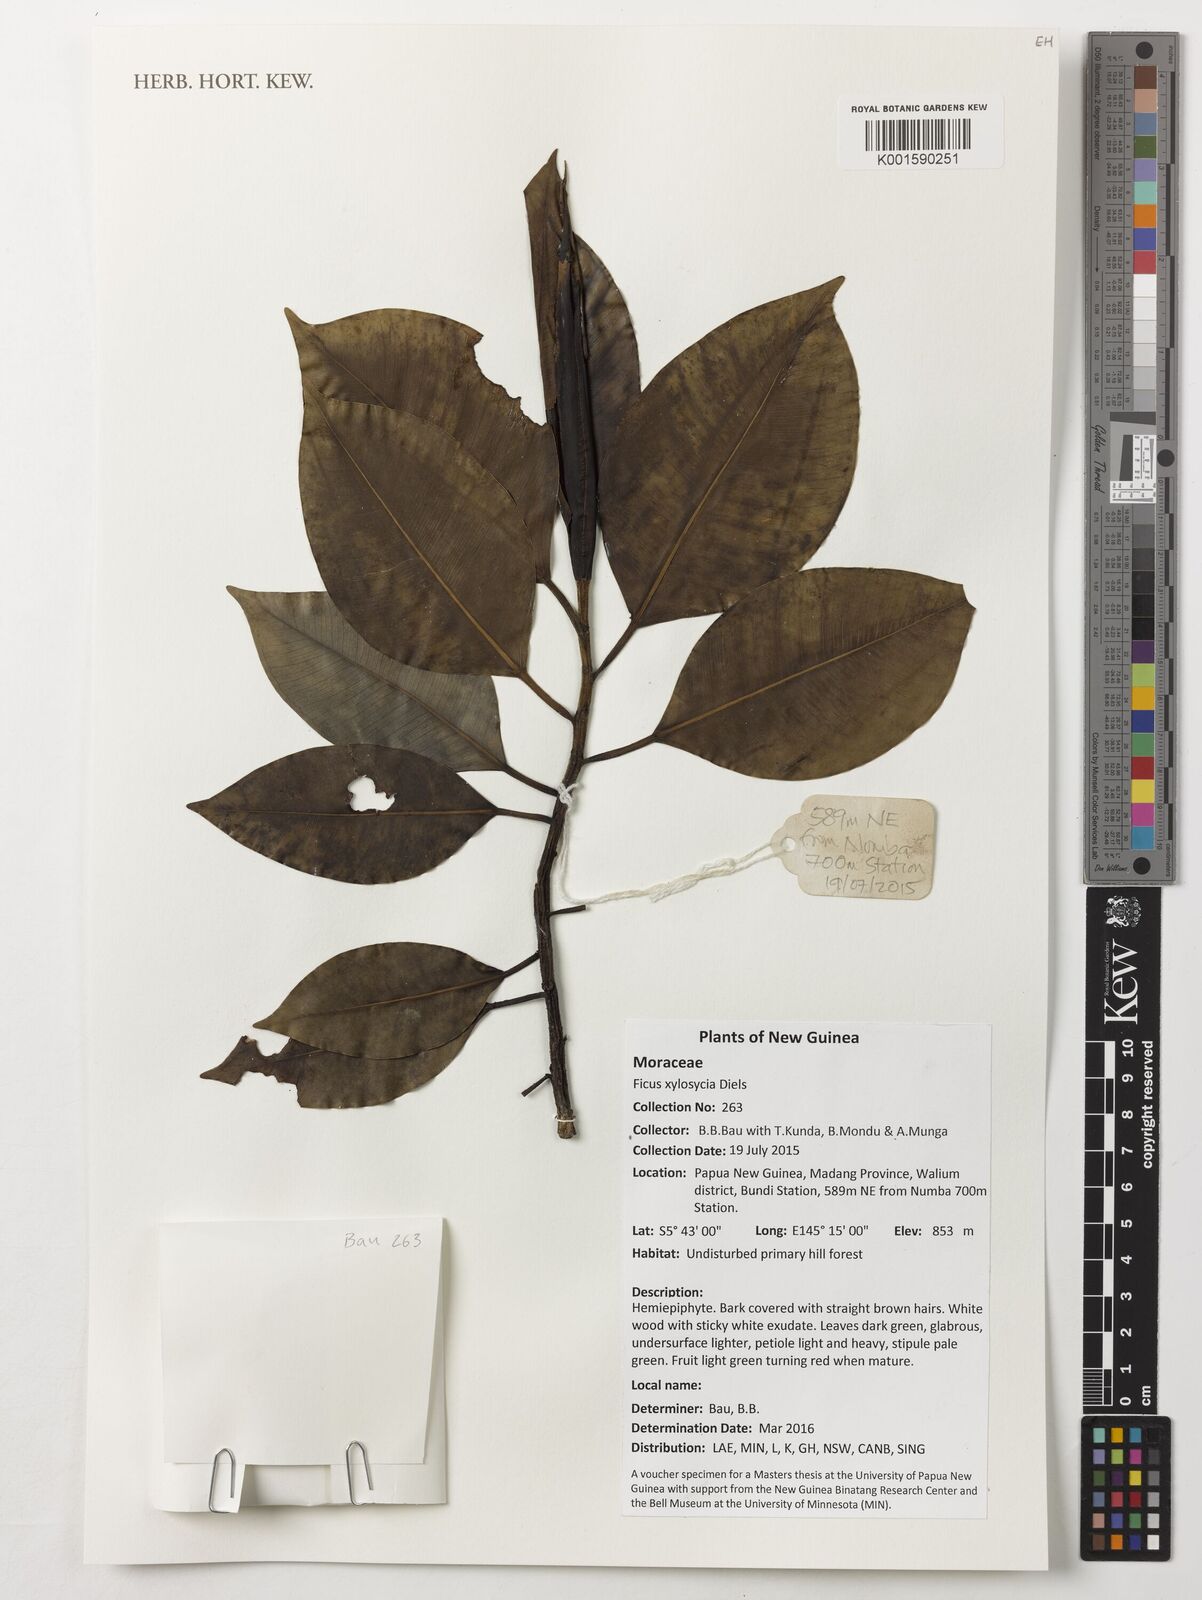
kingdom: Plantae
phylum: Tracheophyta
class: Magnoliopsida
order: Rosales
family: Moraceae
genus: Ficus
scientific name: Ficus hesperidiiformis
